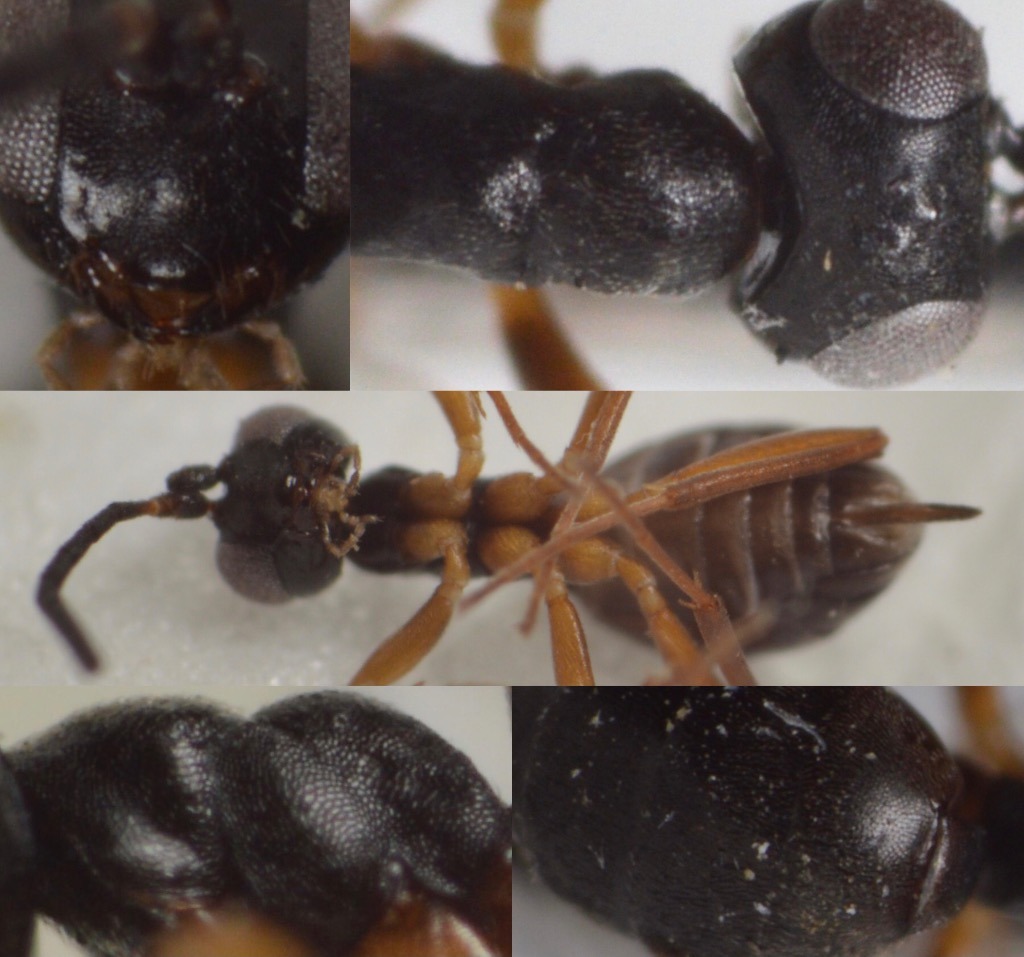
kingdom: Animalia
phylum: Arthropoda
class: Insecta
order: Hymenoptera
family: Ichneumonidae
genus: Gelis
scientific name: Gelis declivis
